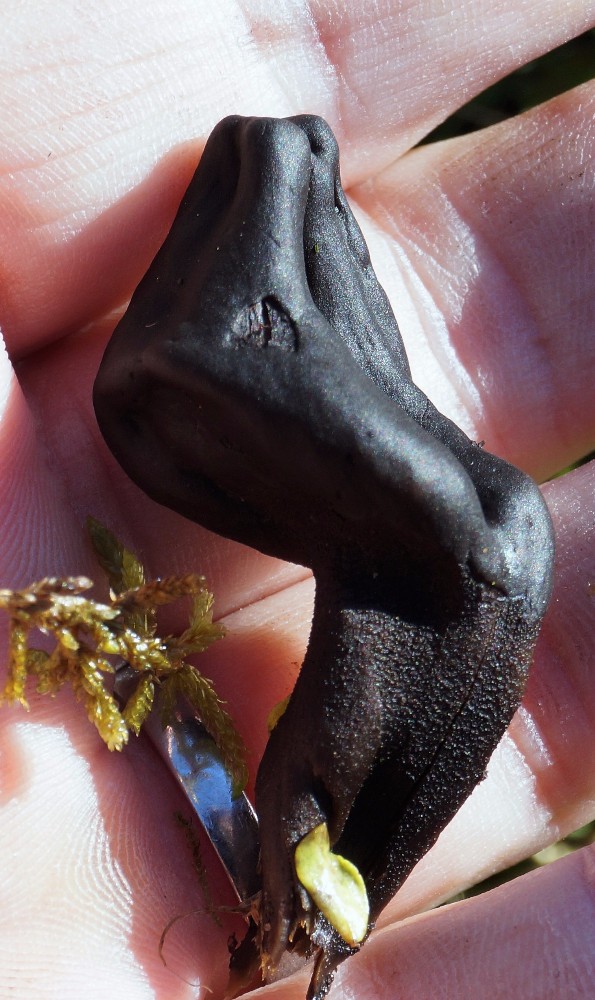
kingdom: Fungi
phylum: Ascomycota
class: Geoglossomycetes
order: Geoglossales
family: Geoglossaceae
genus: Geoglossum
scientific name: Geoglossum
